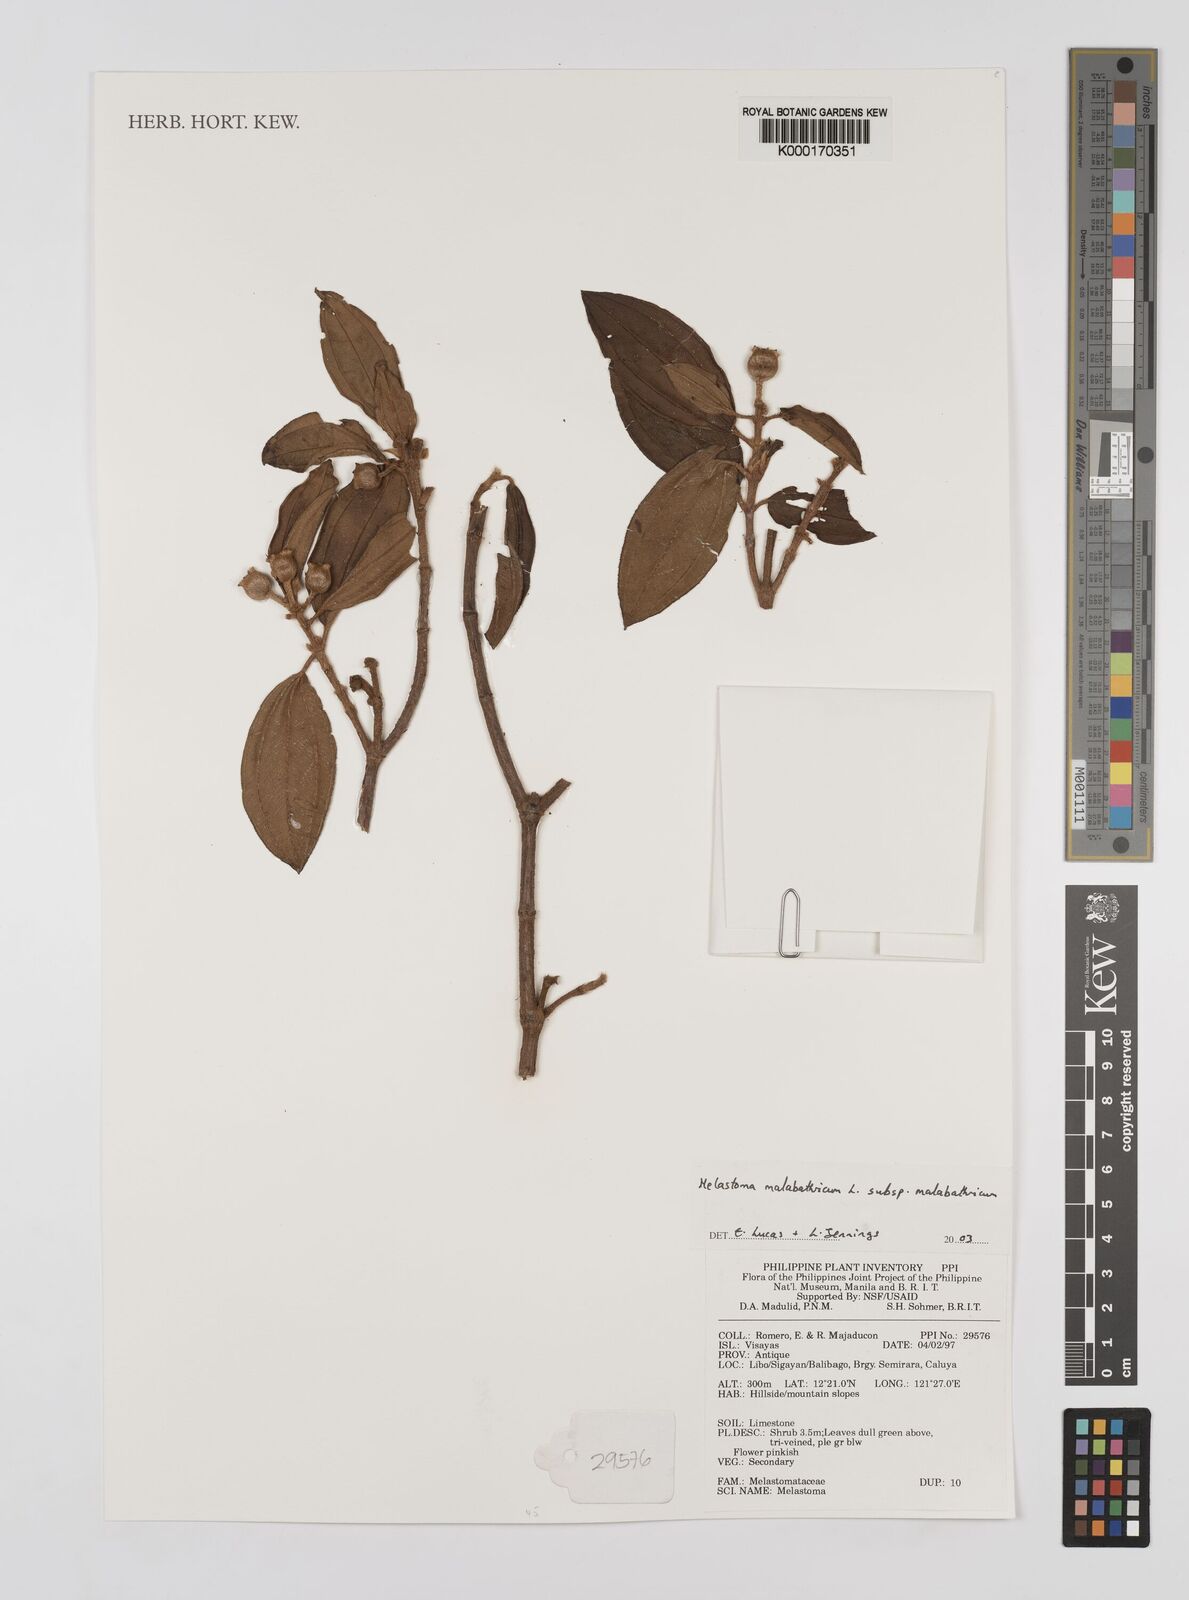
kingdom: Plantae
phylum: Tracheophyta
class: Magnoliopsida
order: Myrtales
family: Melastomataceae
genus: Melastoma
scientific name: Melastoma malabathricum
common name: Indian-rhododendron
